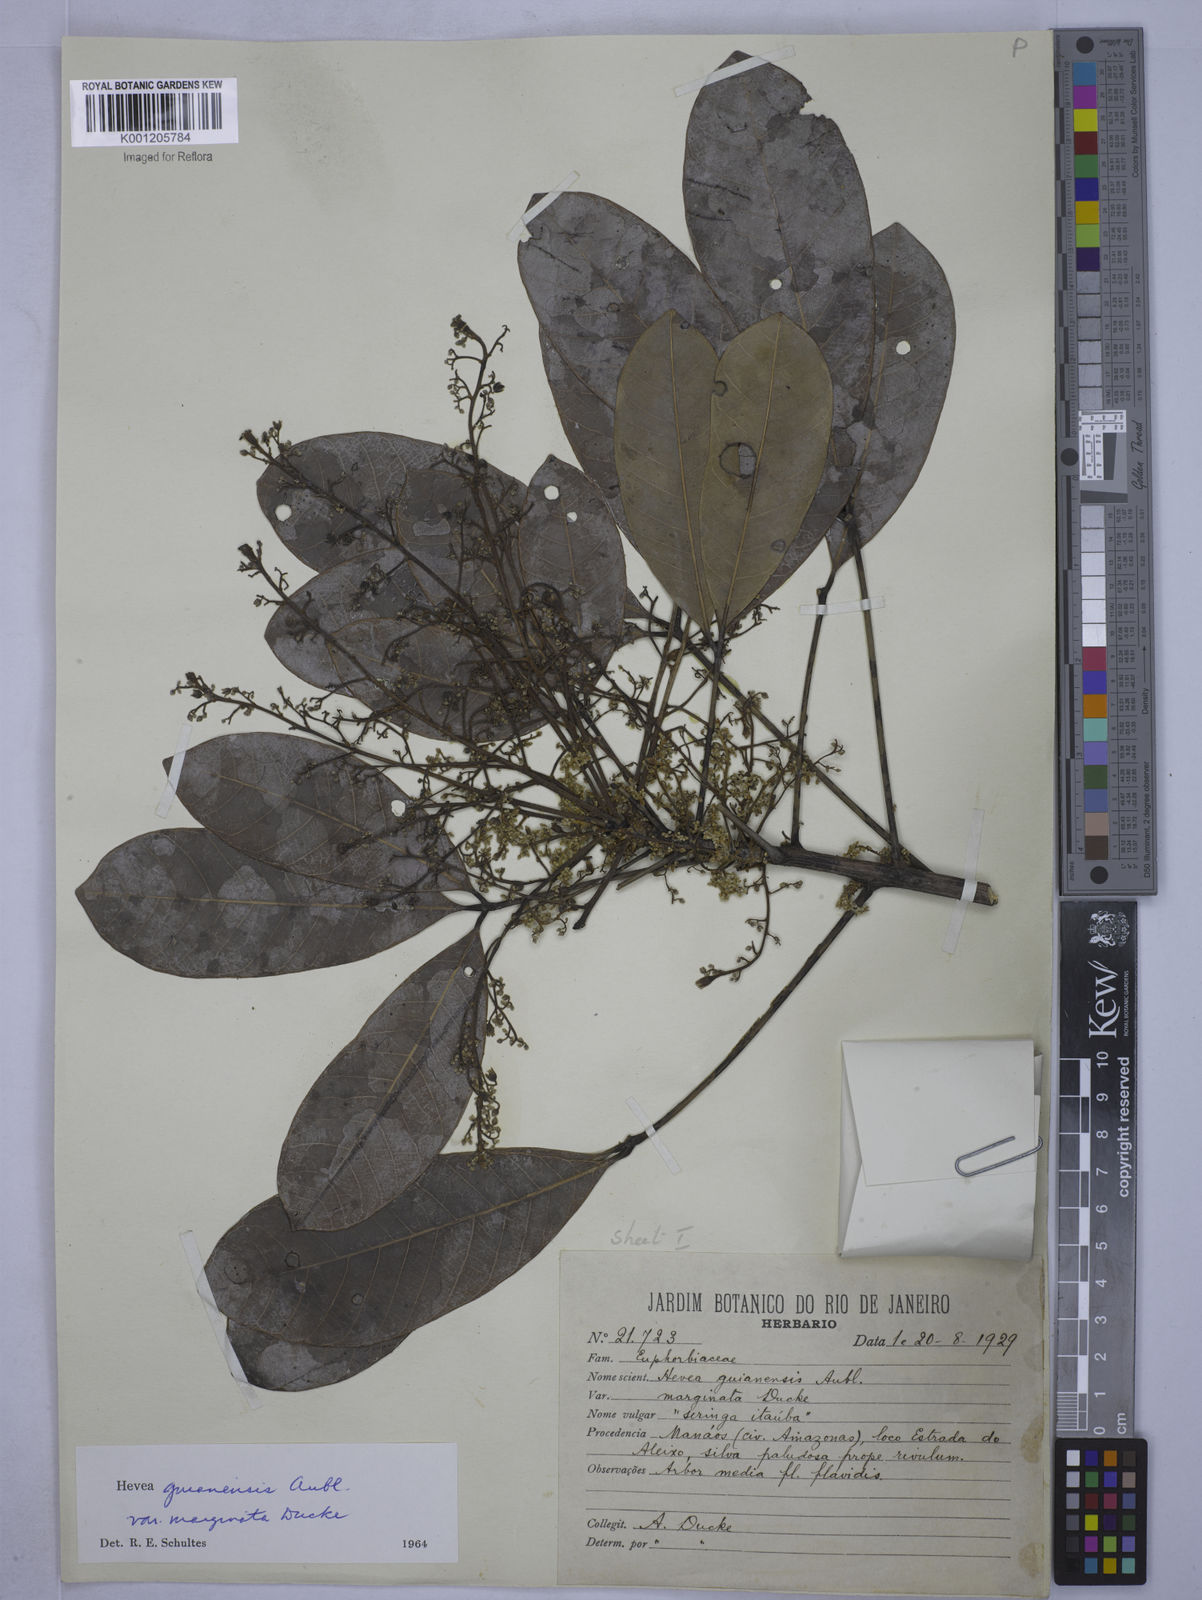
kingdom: Plantae
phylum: Tracheophyta
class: Magnoliopsida
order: Malpighiales
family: Euphorbiaceae
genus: Hevea
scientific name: Hevea guianensis
